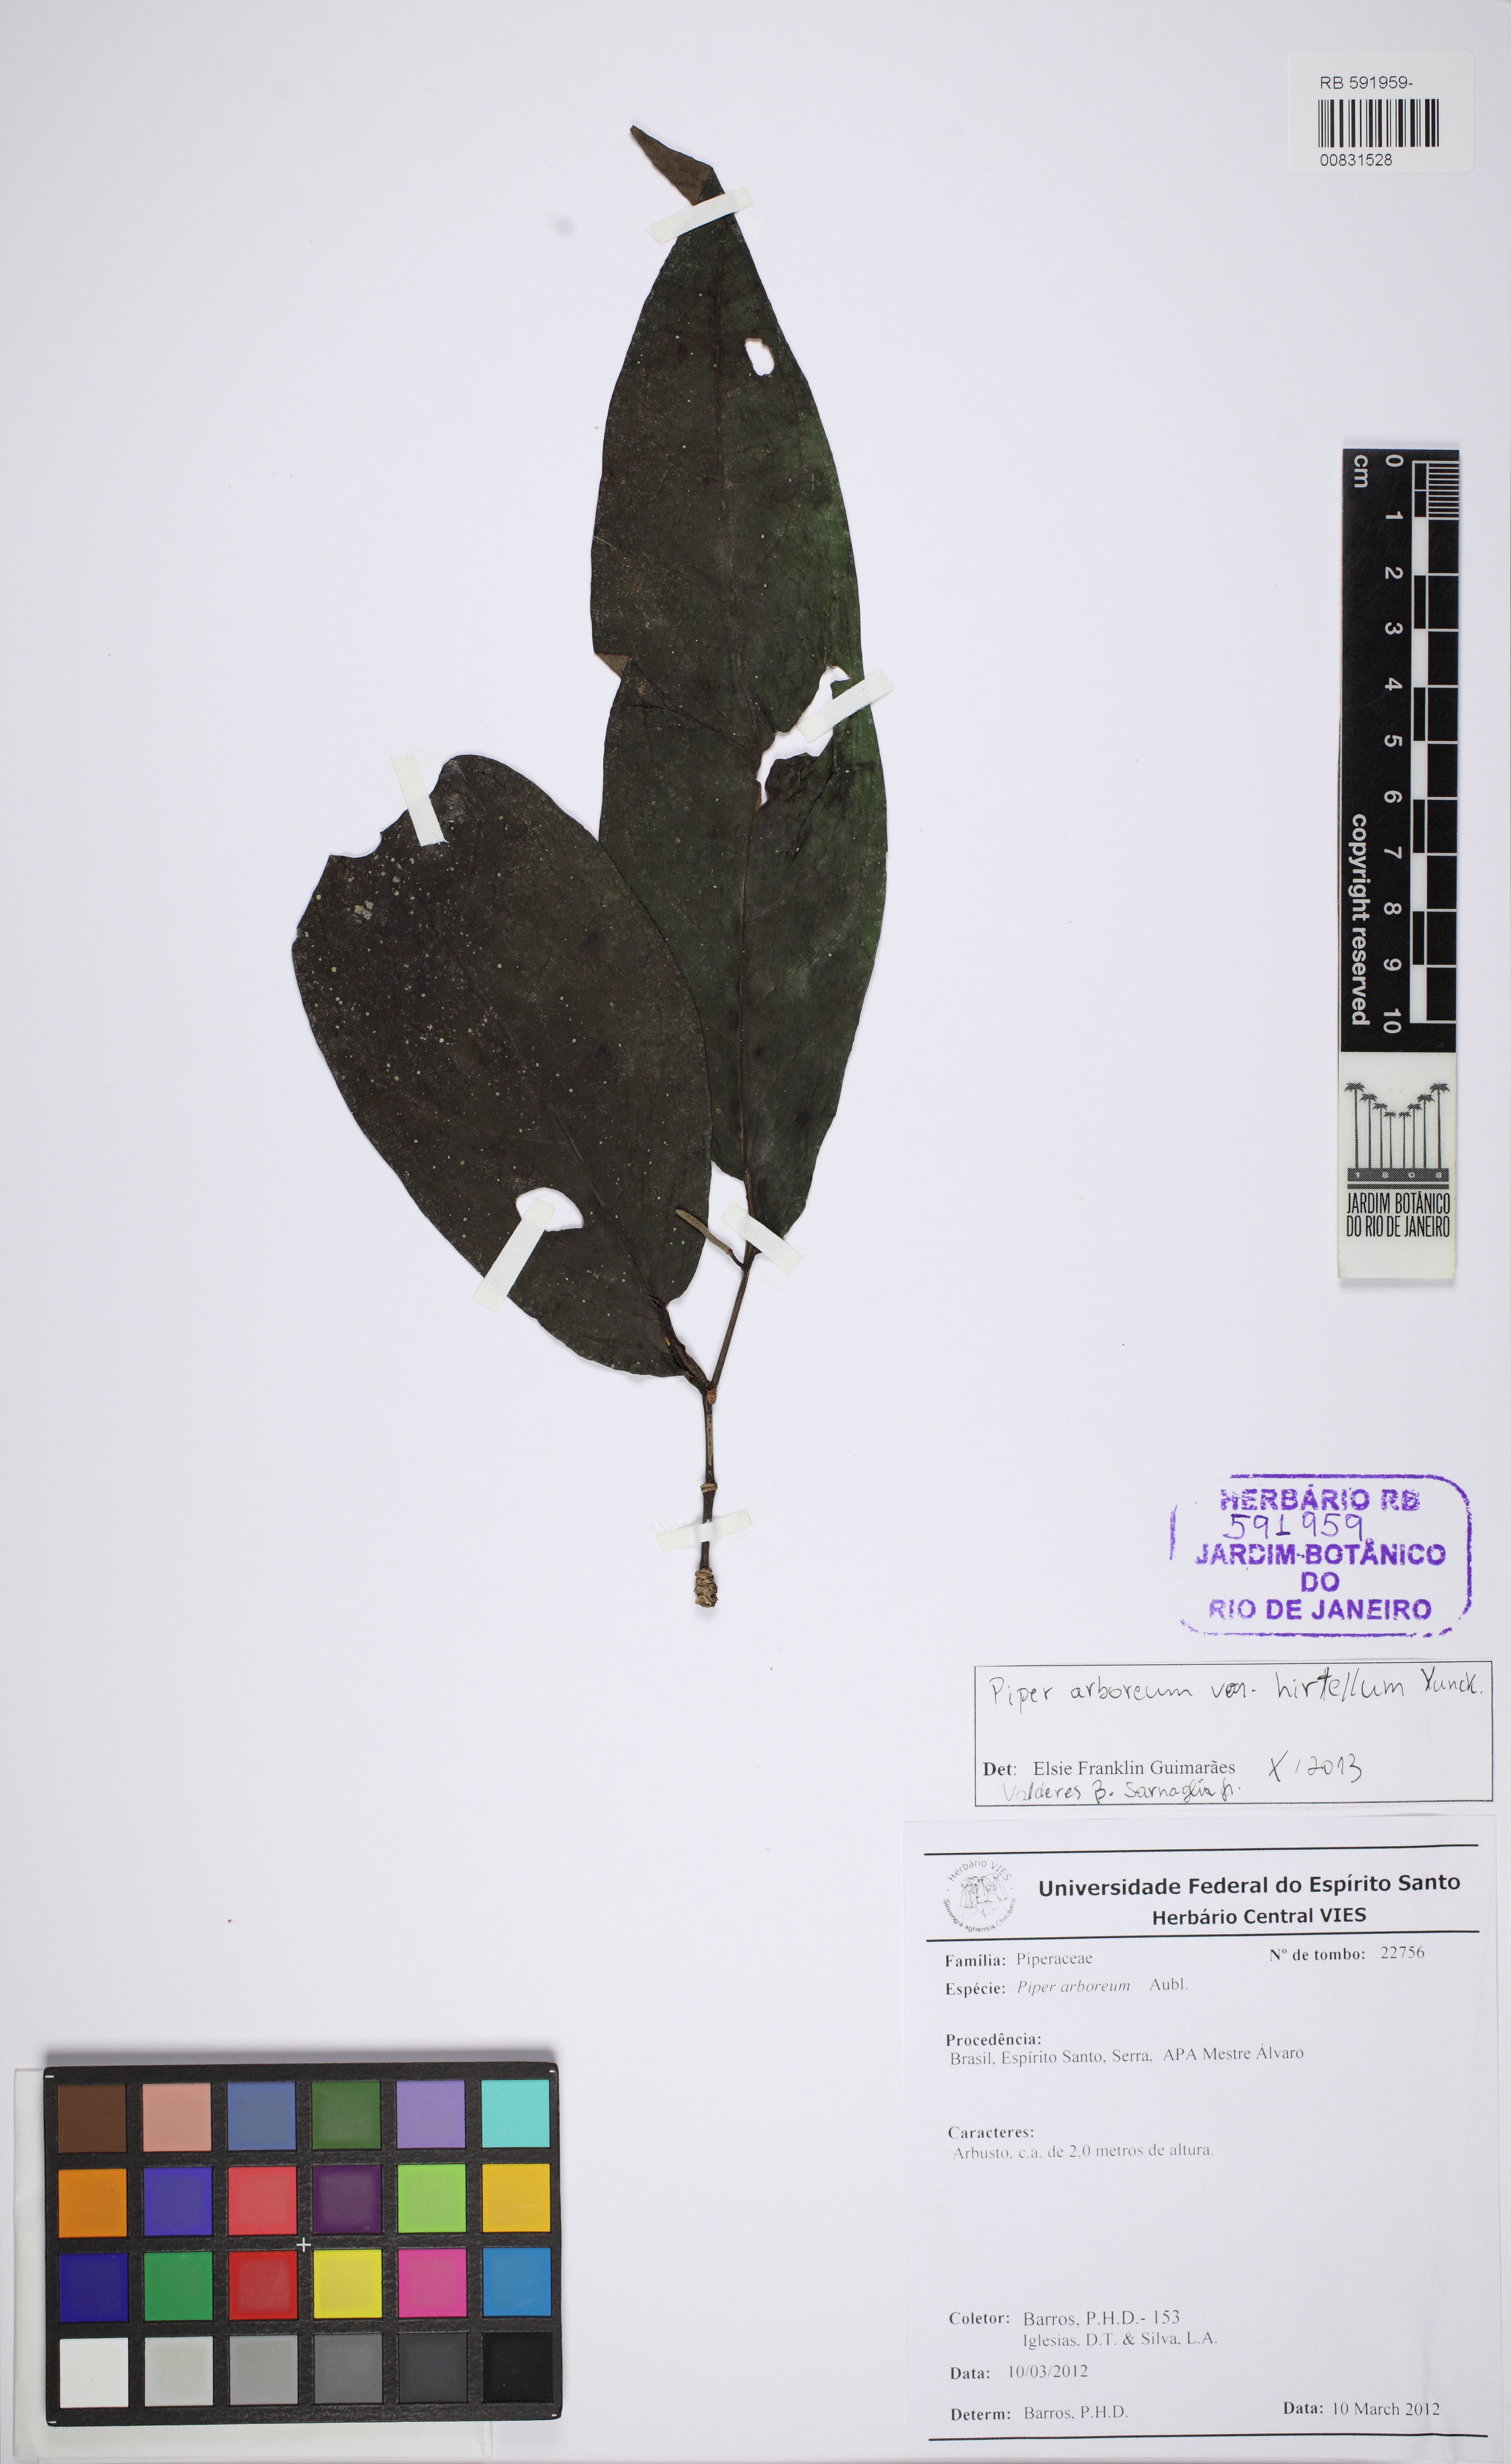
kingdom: Plantae
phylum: Tracheophyta
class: Magnoliopsida
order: Piperales
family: Piperaceae
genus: Piper
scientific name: Piper arboreum
